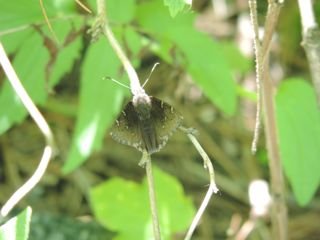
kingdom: Animalia
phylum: Arthropoda
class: Insecta
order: Lepidoptera
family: Hesperiidae
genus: Autochton
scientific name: Autochton
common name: Northern Cloudywing
